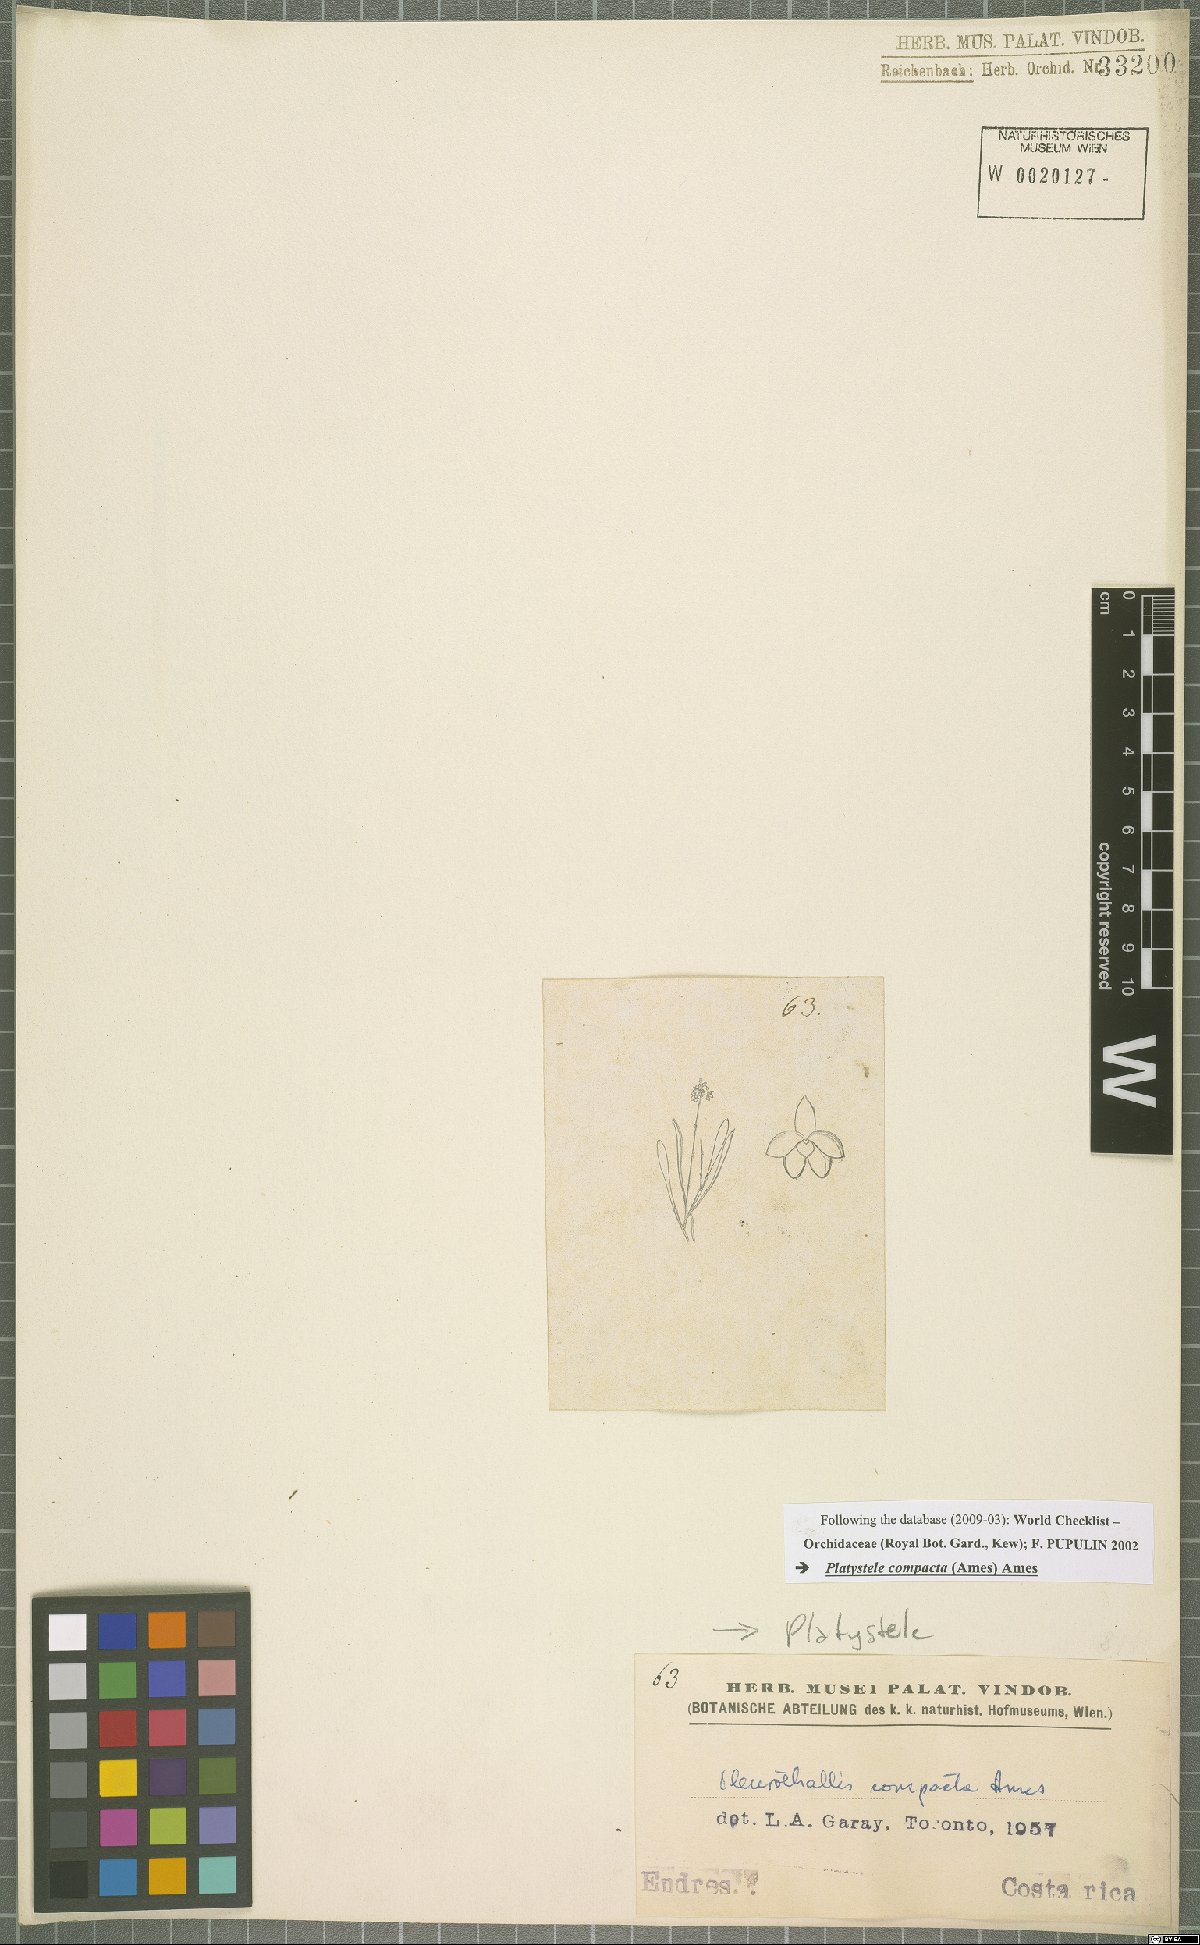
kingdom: Plantae
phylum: Tracheophyta
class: Liliopsida
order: Asparagales
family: Orchidaceae
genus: Platystele
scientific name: Platystele compacta
